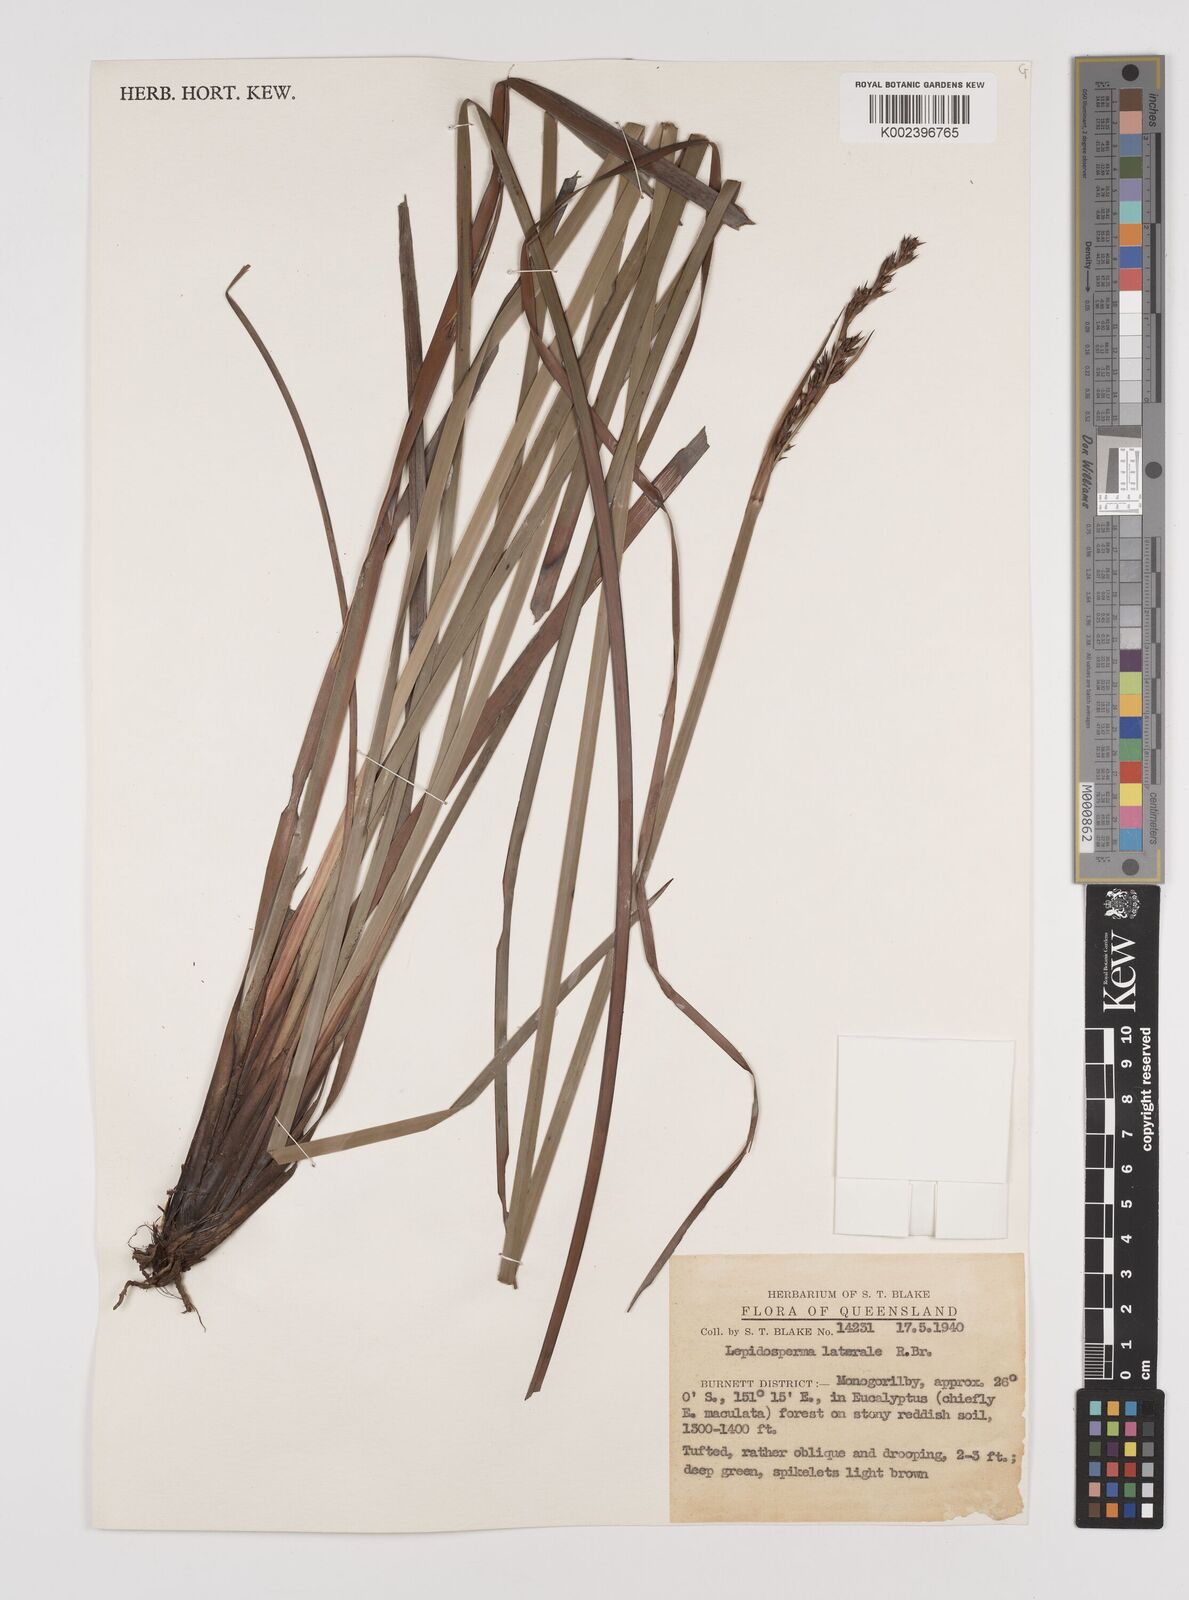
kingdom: Plantae
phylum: Tracheophyta
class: Liliopsida
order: Poales
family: Cyperaceae
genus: Lepidosperma
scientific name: Lepidosperma laterale
